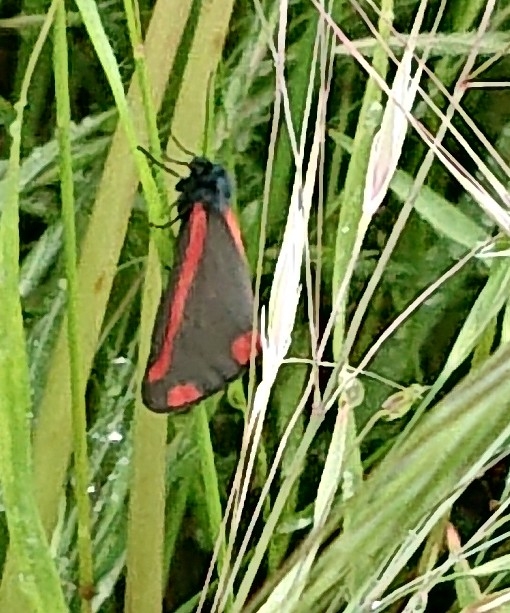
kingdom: Animalia
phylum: Arthropoda
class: Insecta
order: Lepidoptera
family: Erebidae
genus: Tyria
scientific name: Tyria jacobaeae
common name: Blodplet
